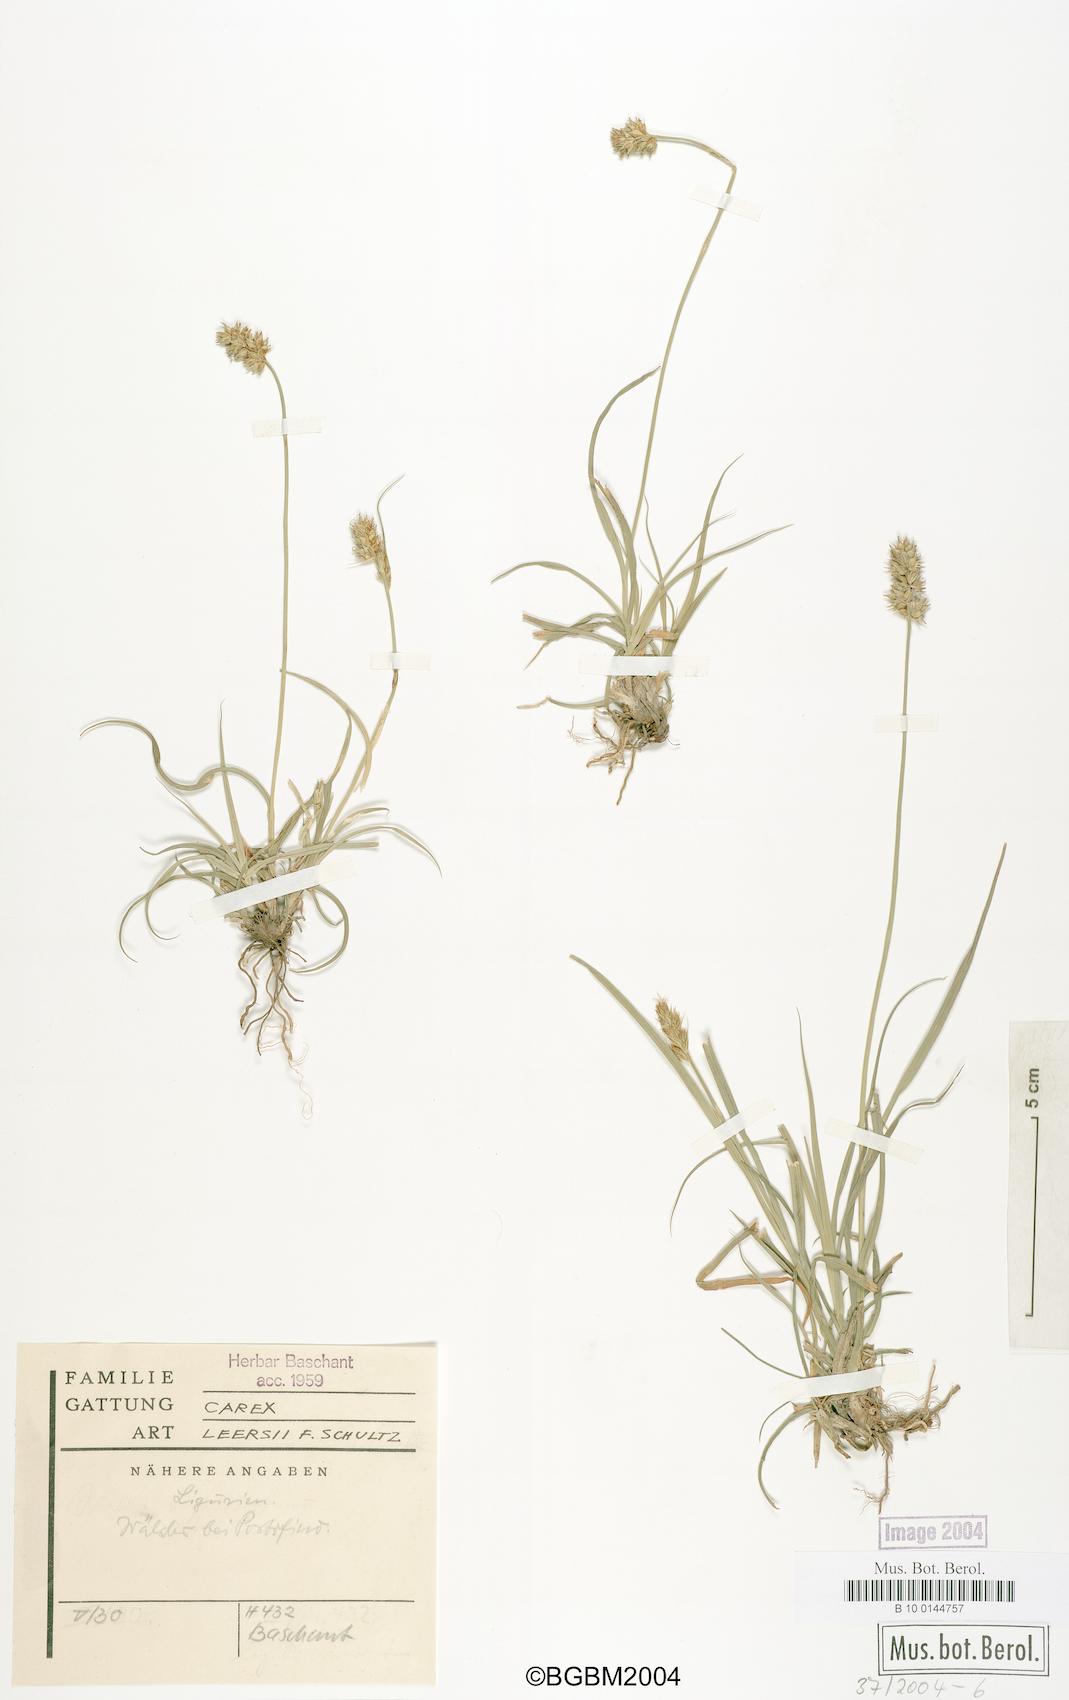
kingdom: Plantae
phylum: Tracheophyta
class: Liliopsida
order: Poales
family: Cyperaceae
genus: Carex
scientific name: Carex leersii
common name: Leers' sedge
